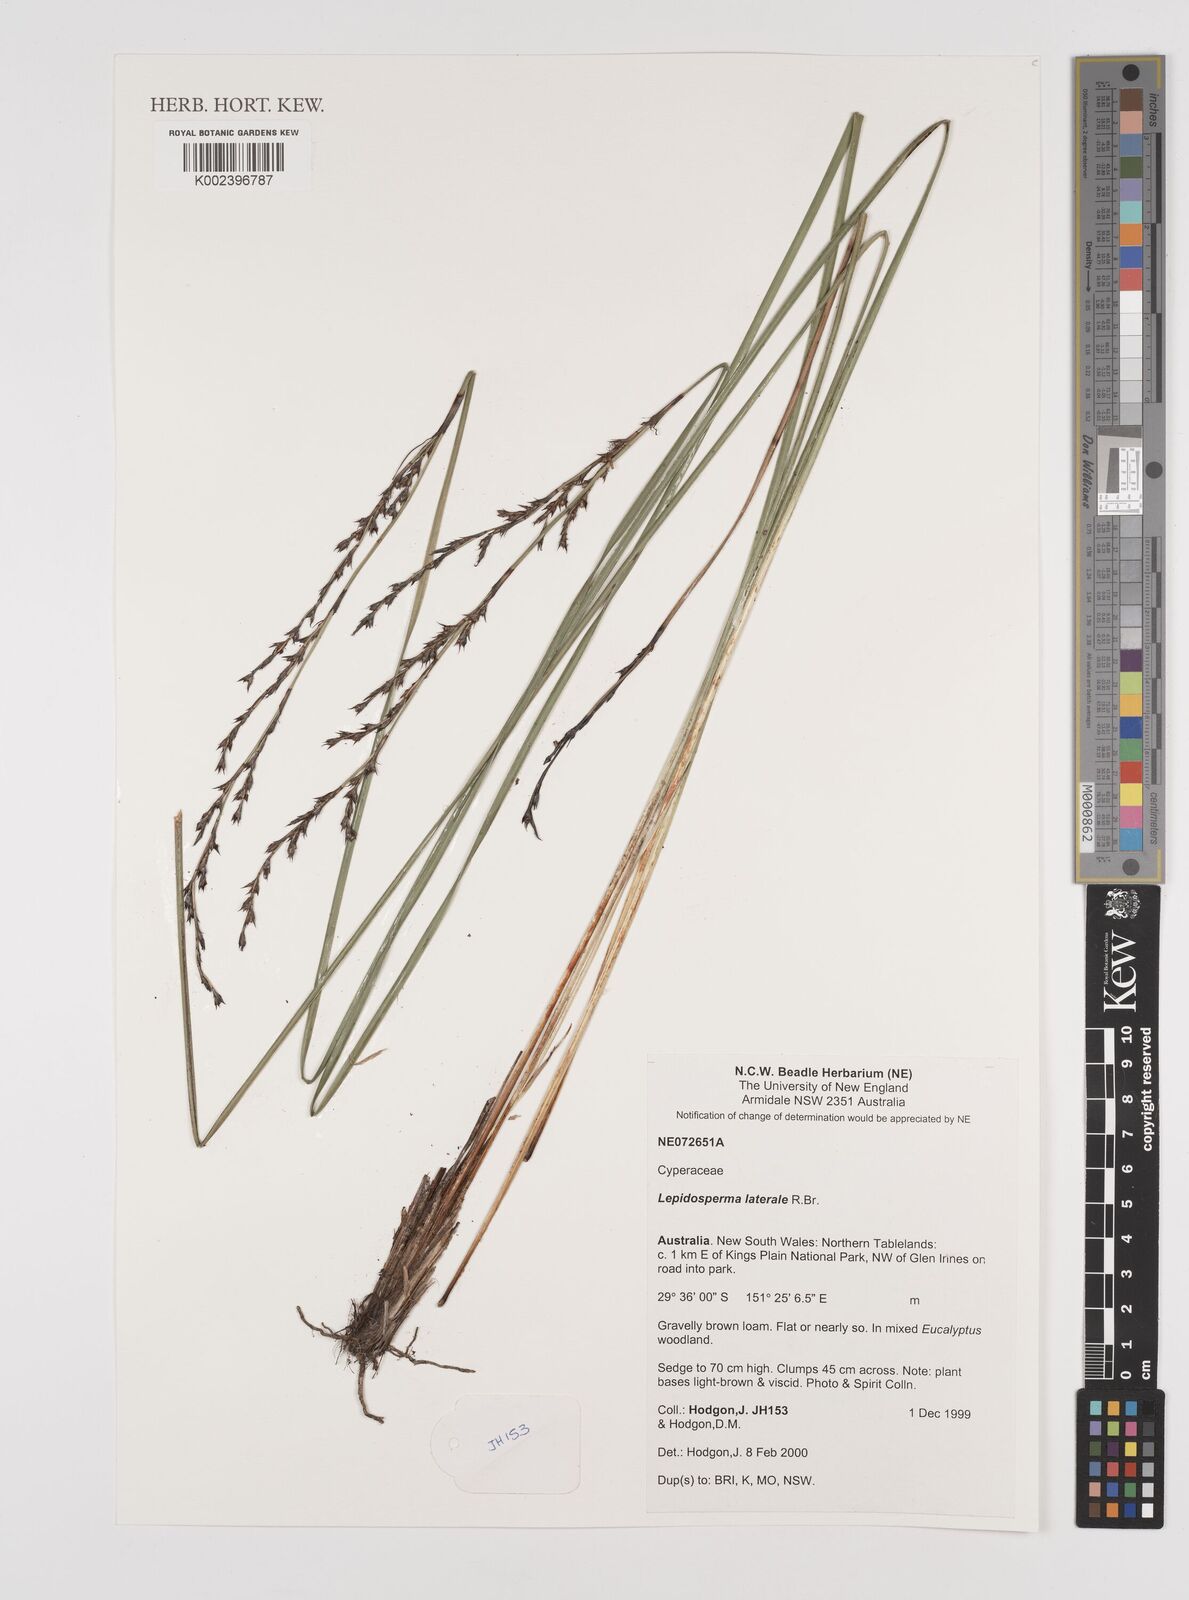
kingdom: Plantae
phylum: Tracheophyta
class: Liliopsida
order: Poales
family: Cyperaceae
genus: Lepidosperma
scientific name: Lepidosperma laterale
